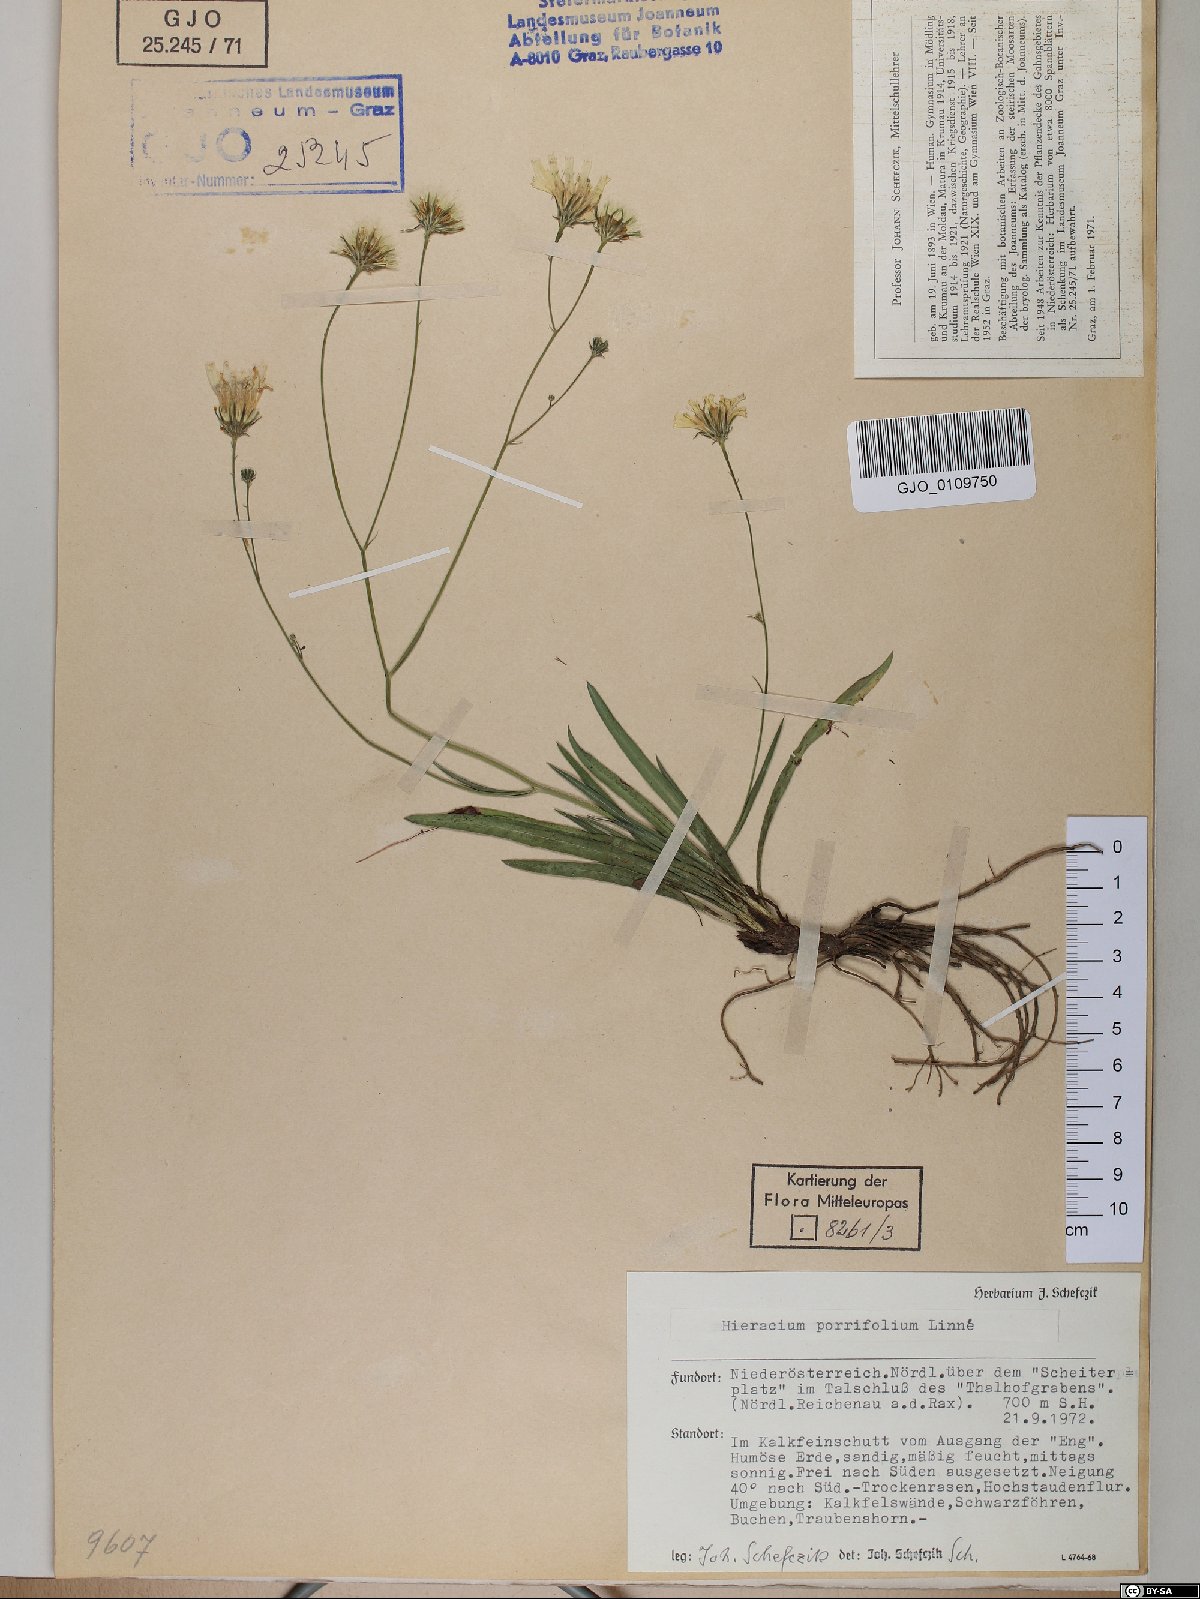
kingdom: Plantae
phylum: Tracheophyta
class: Magnoliopsida
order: Asterales
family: Asteraceae
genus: Hieracium
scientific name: Hieracium porrifolium
